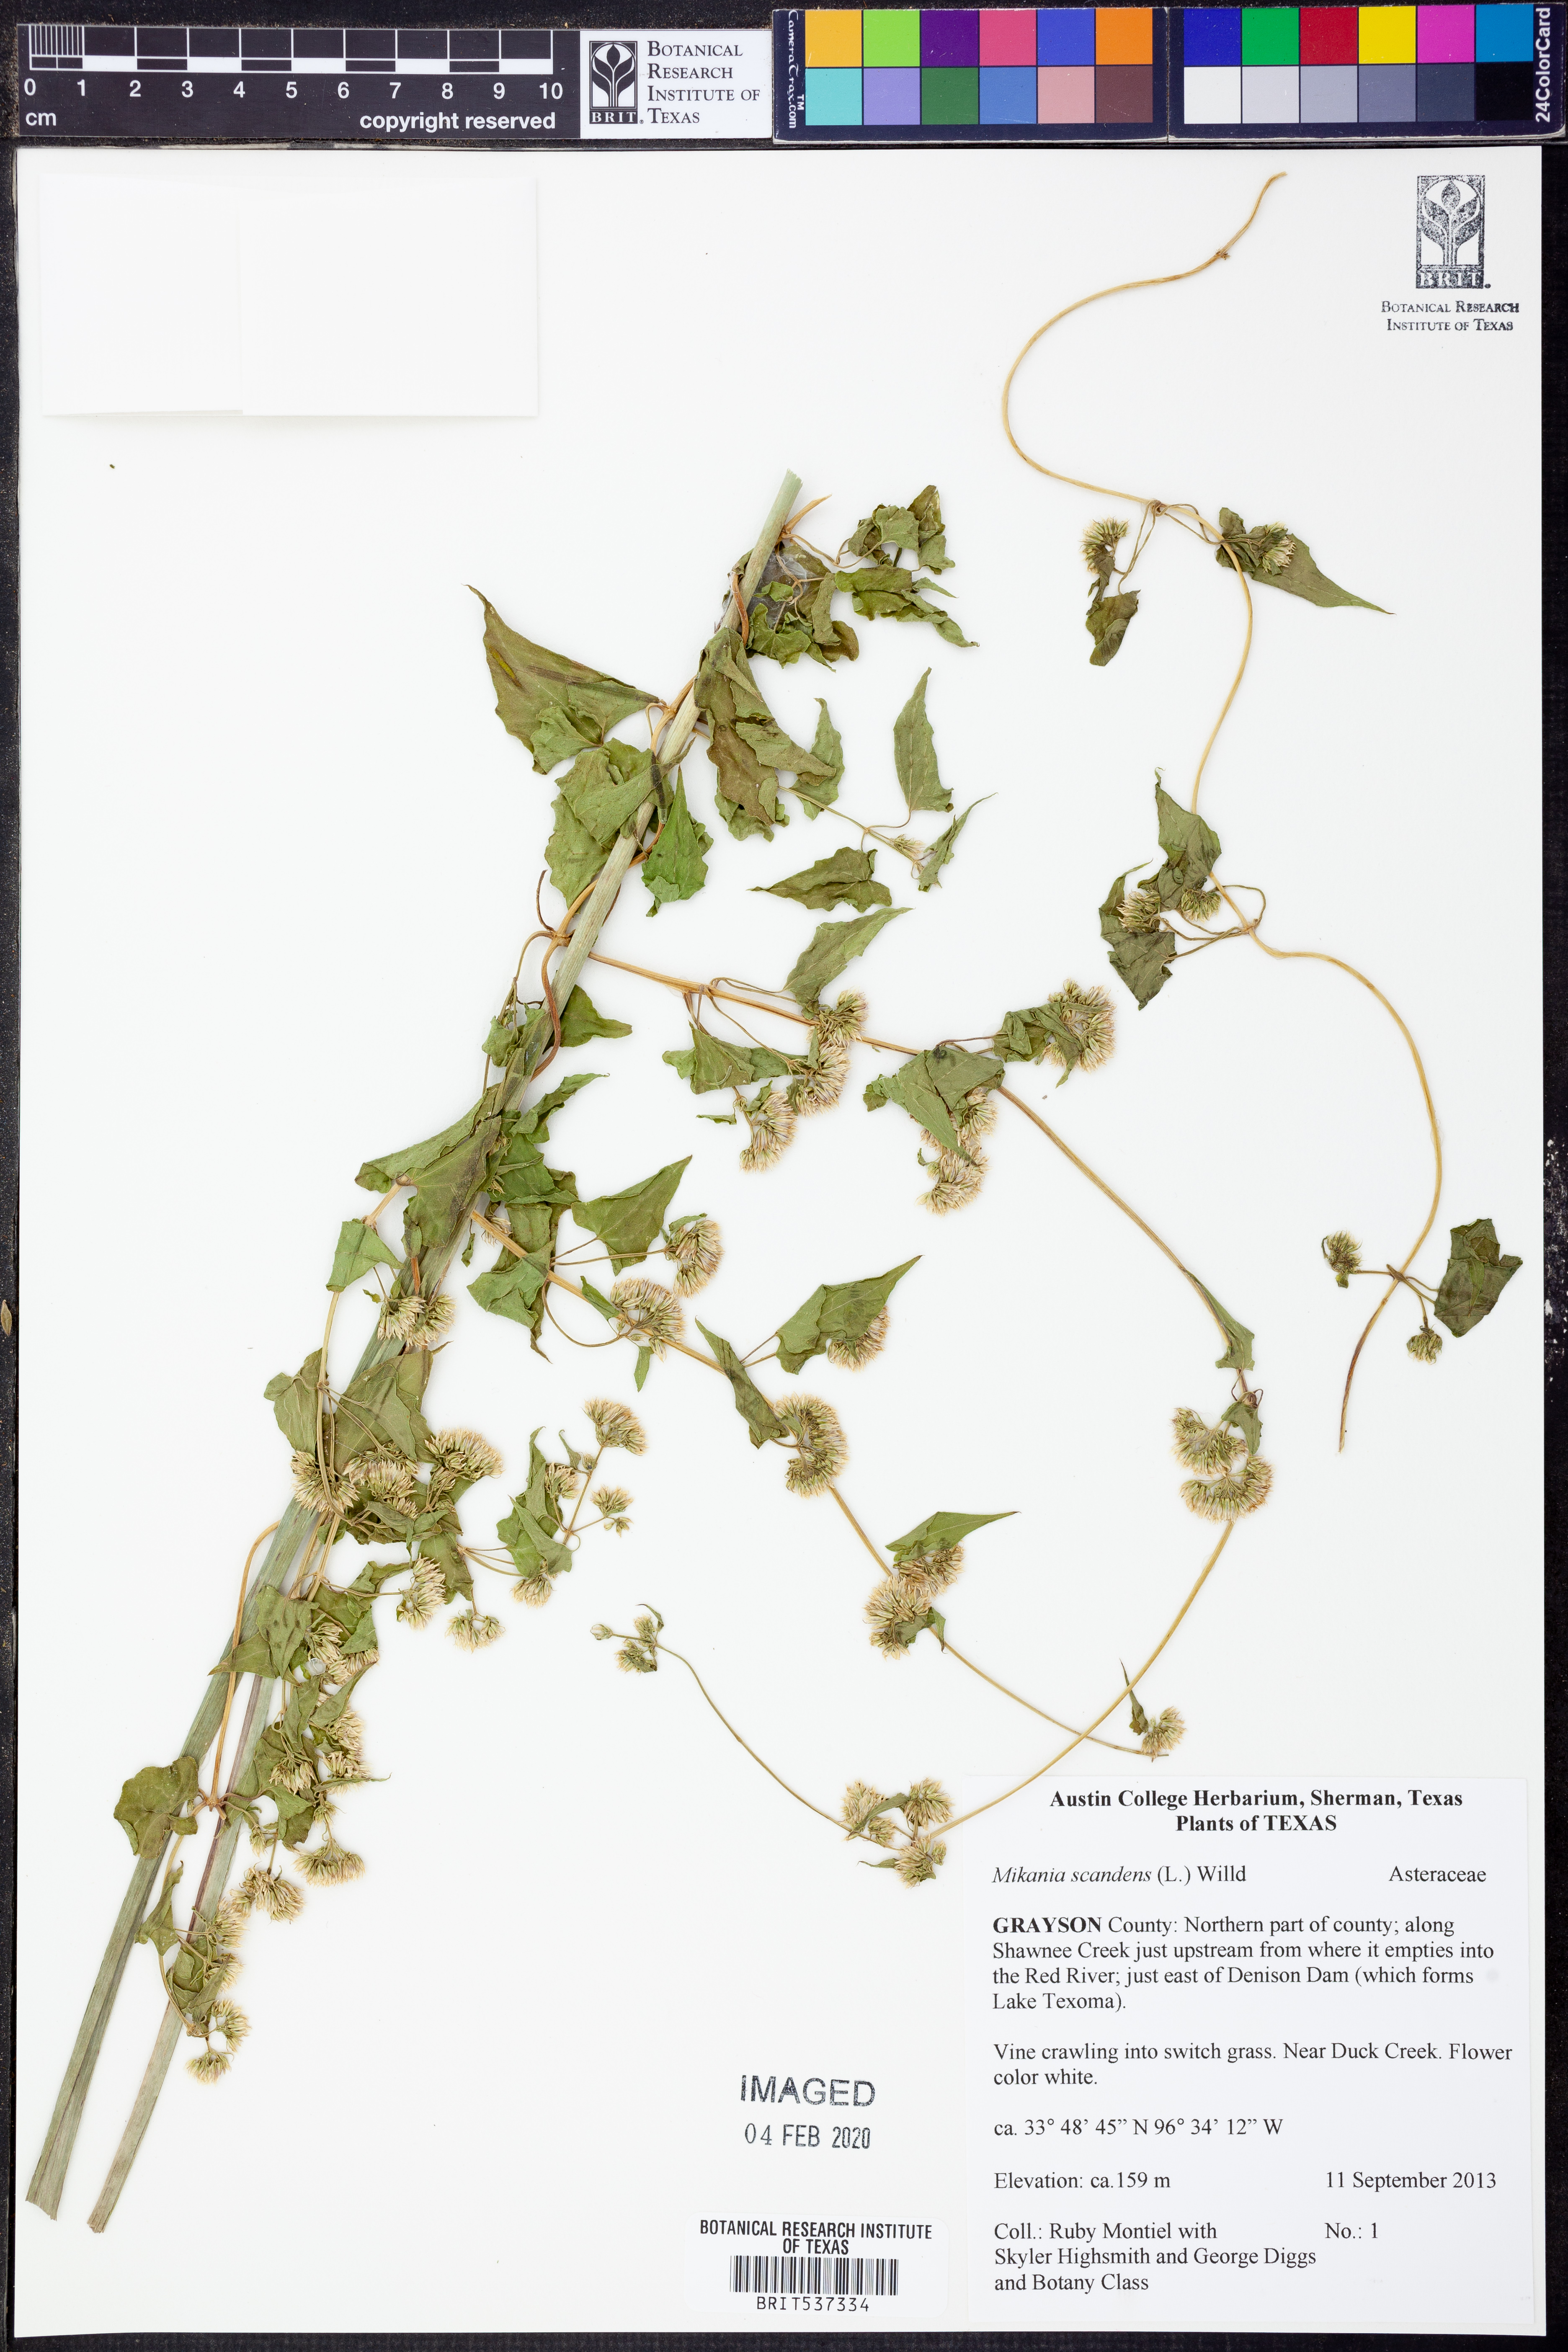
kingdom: Plantae
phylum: Tracheophyta
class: Magnoliopsida
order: Asterales
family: Asteraceae
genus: Mikania
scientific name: Mikania scandens
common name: Climbing hempvine
